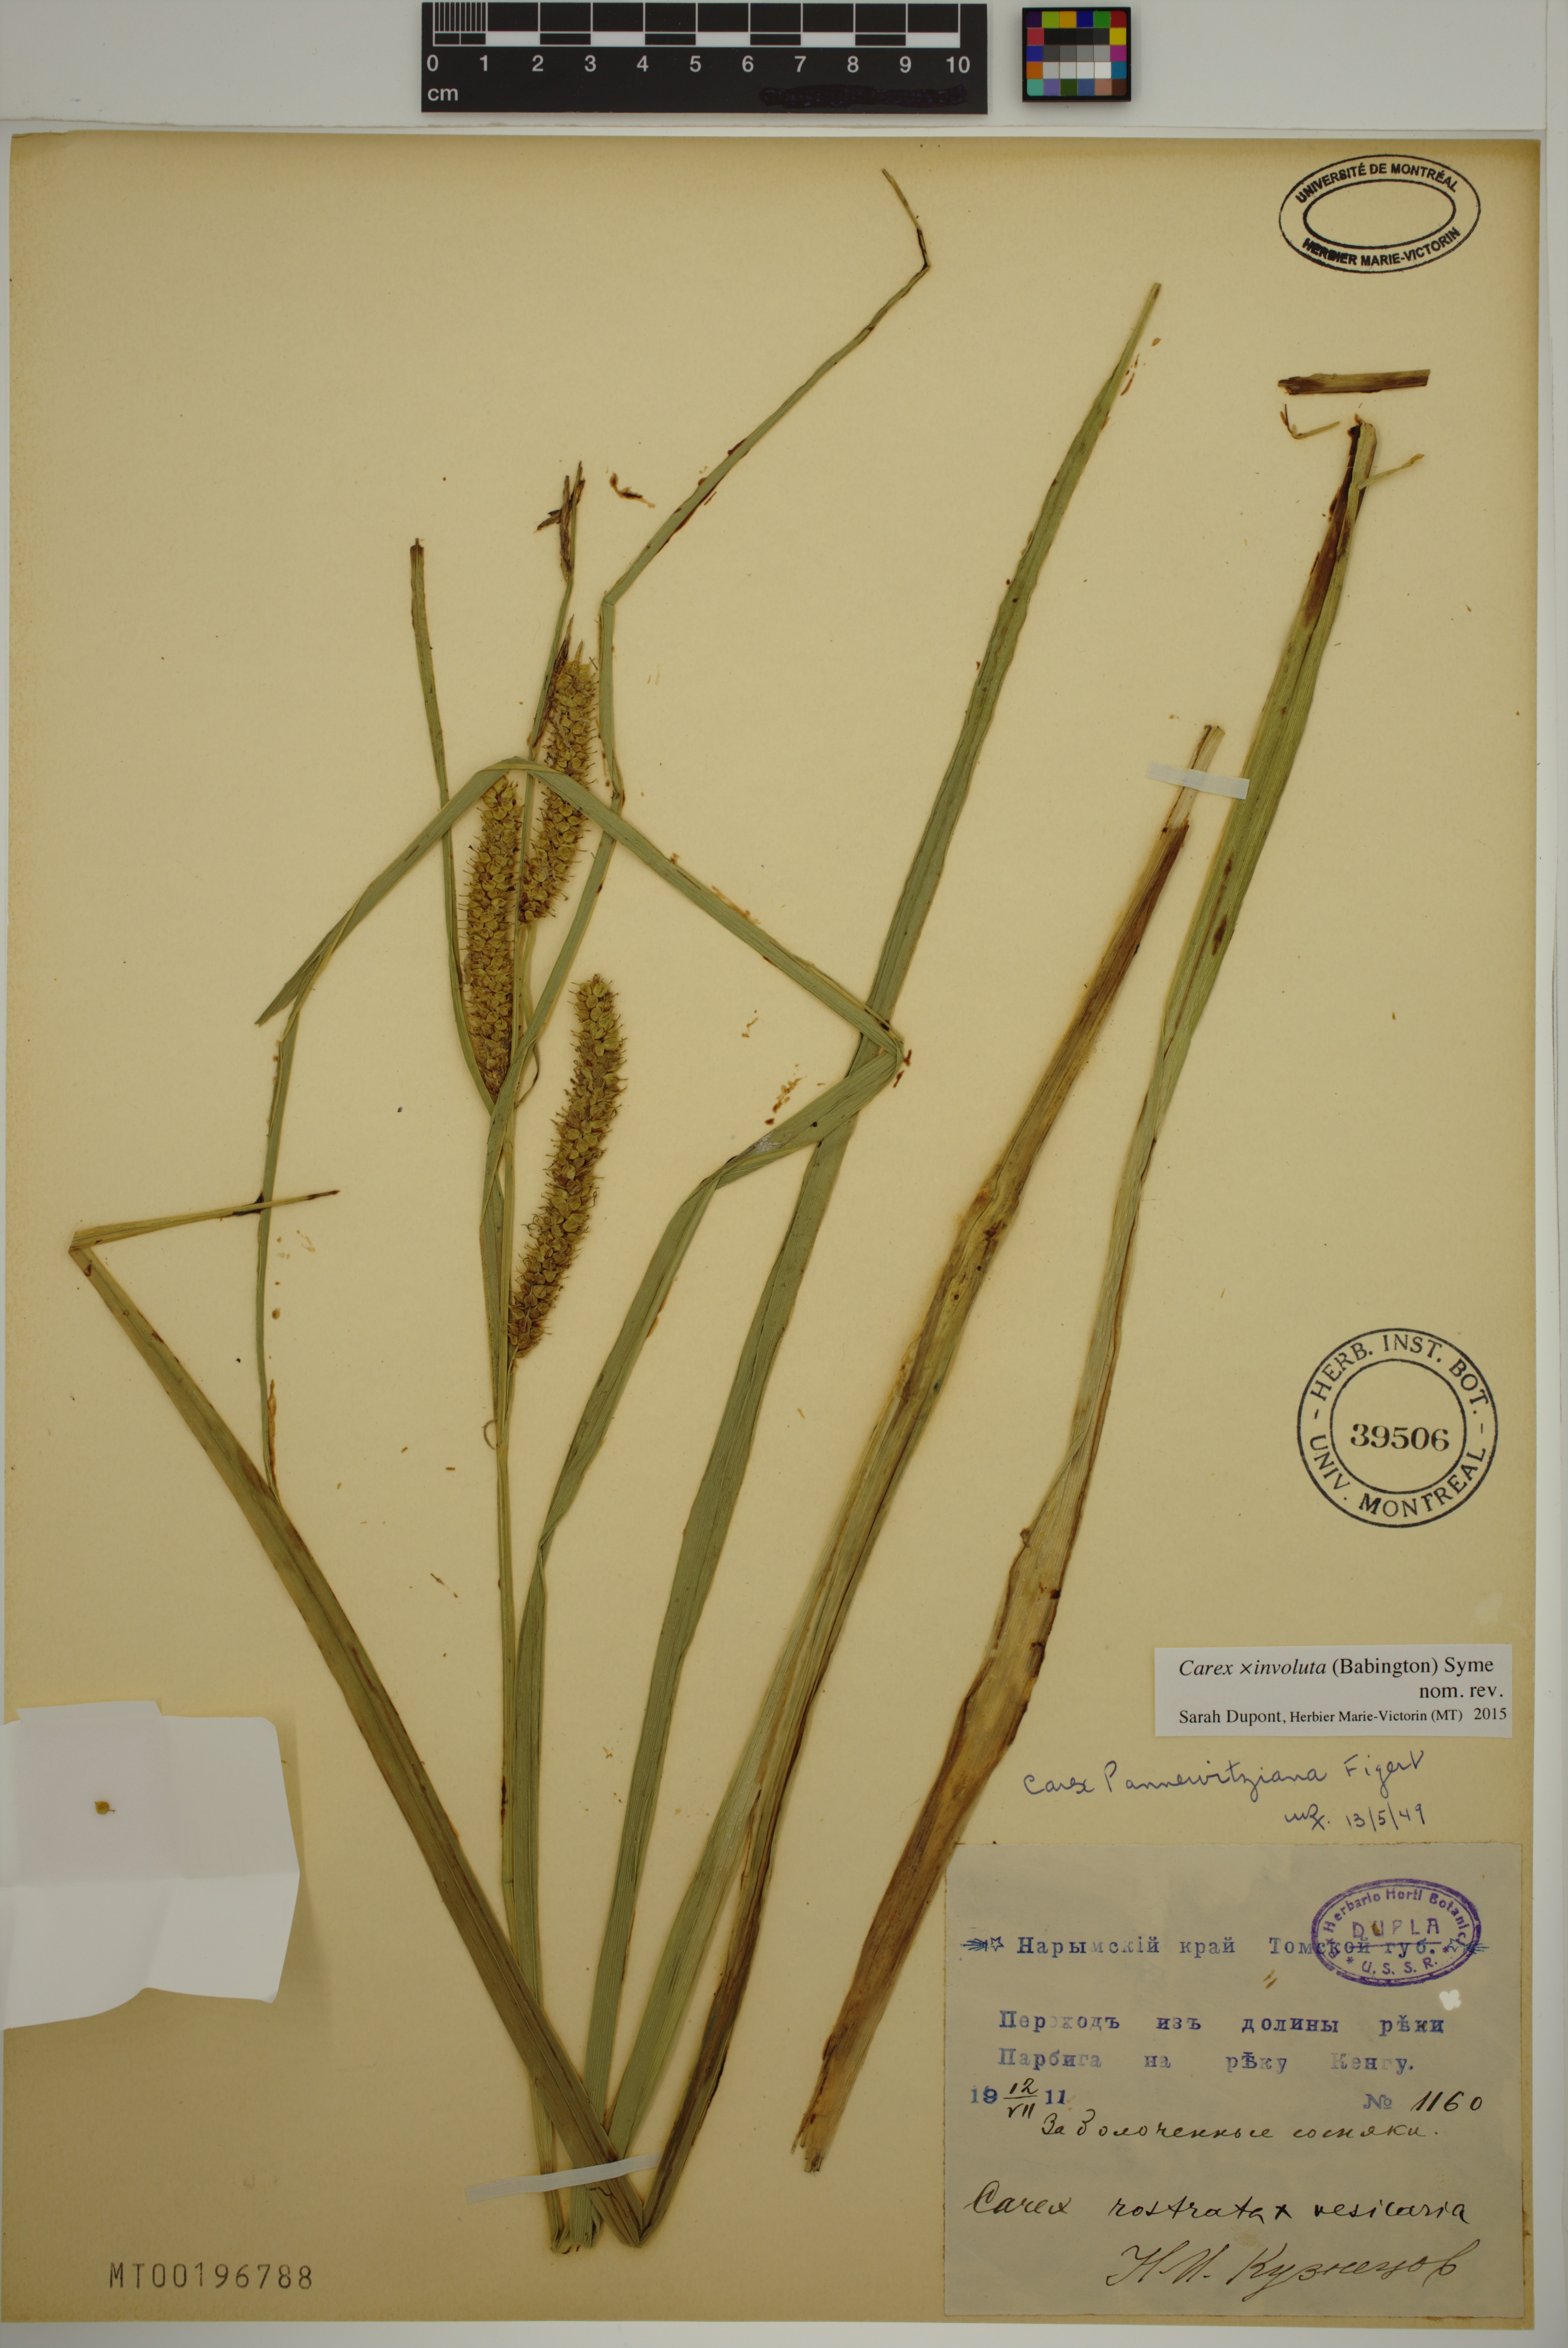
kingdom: Plantae
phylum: Tracheophyta
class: Liliopsida
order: Poales
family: Cyperaceae
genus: Carex
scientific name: Carex involuta
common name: Pannewitz's sedge
